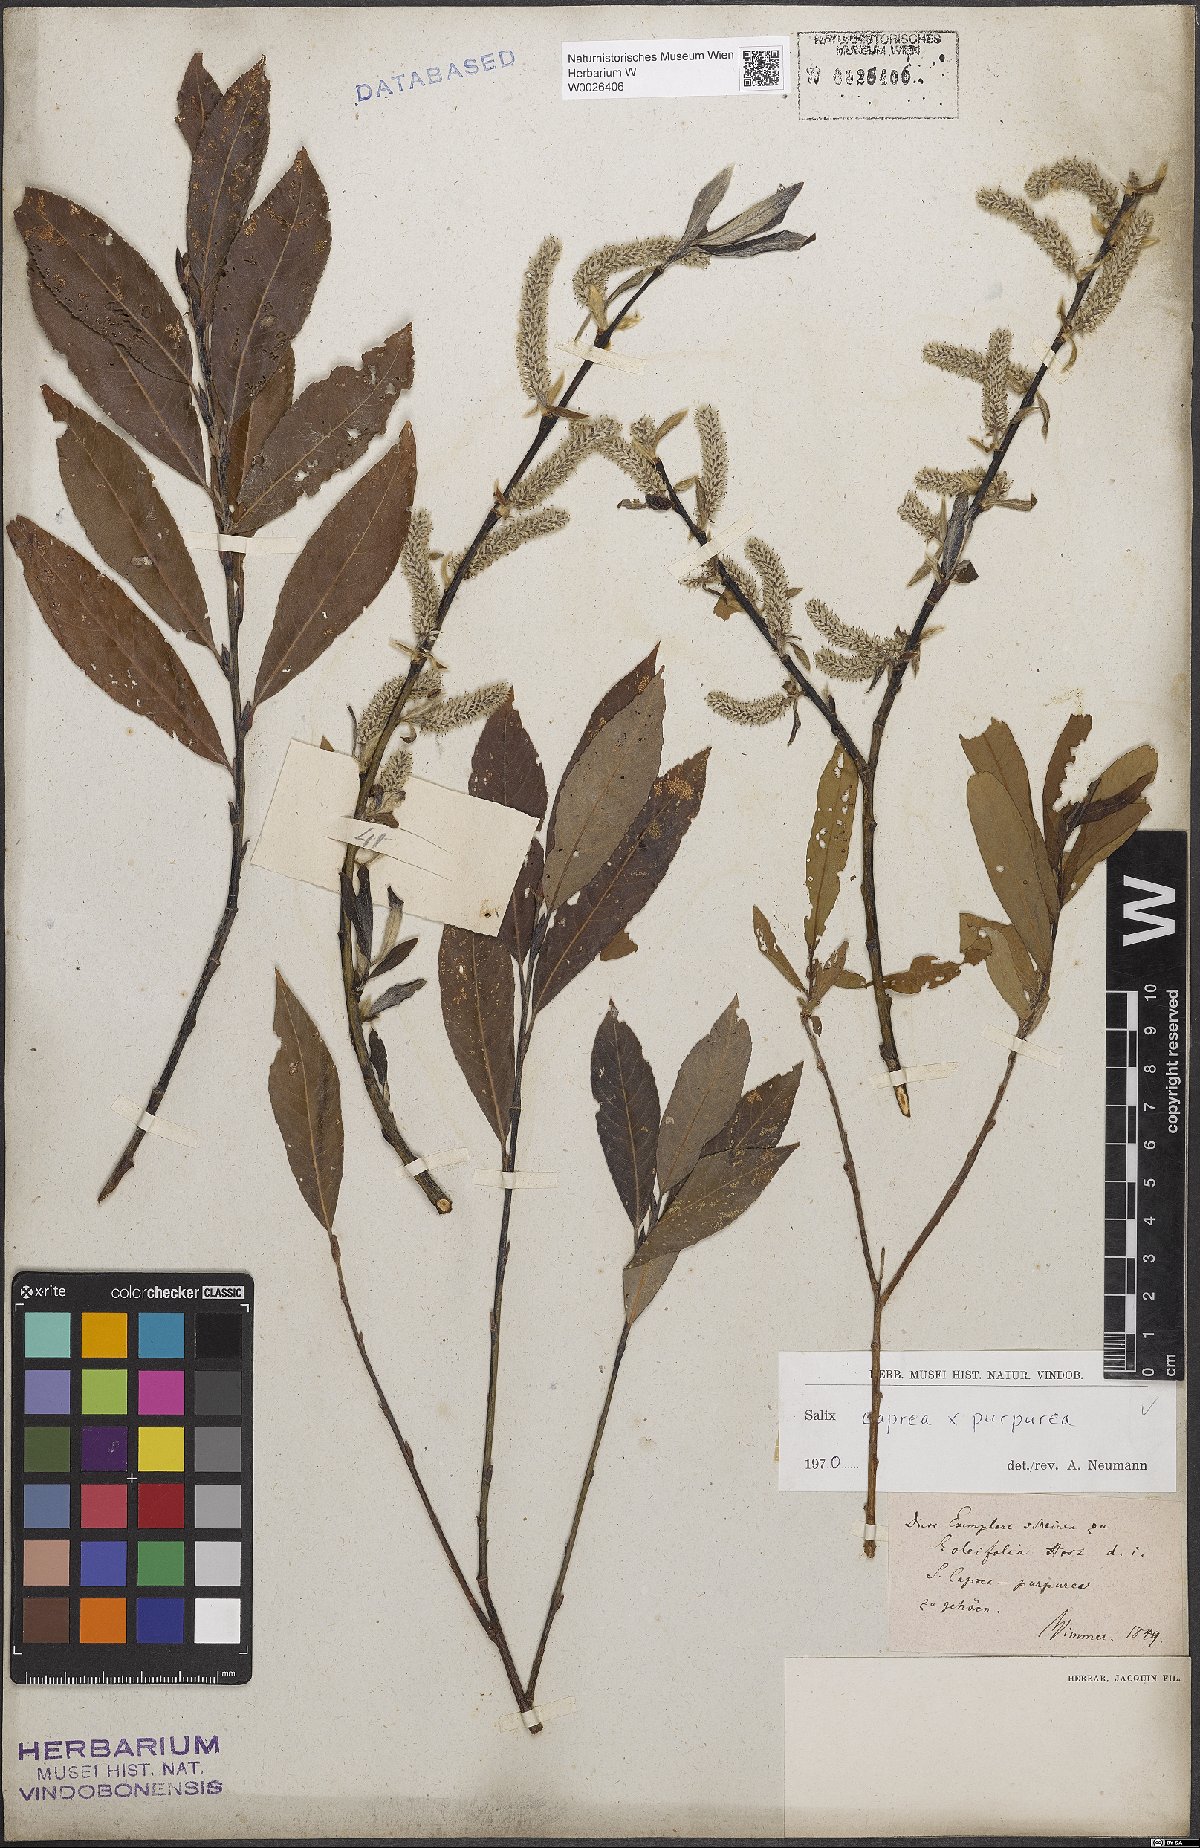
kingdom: Plantae
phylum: Tracheophyta
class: Magnoliopsida
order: Malpighiales
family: Salicaceae
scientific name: Salicaceae
